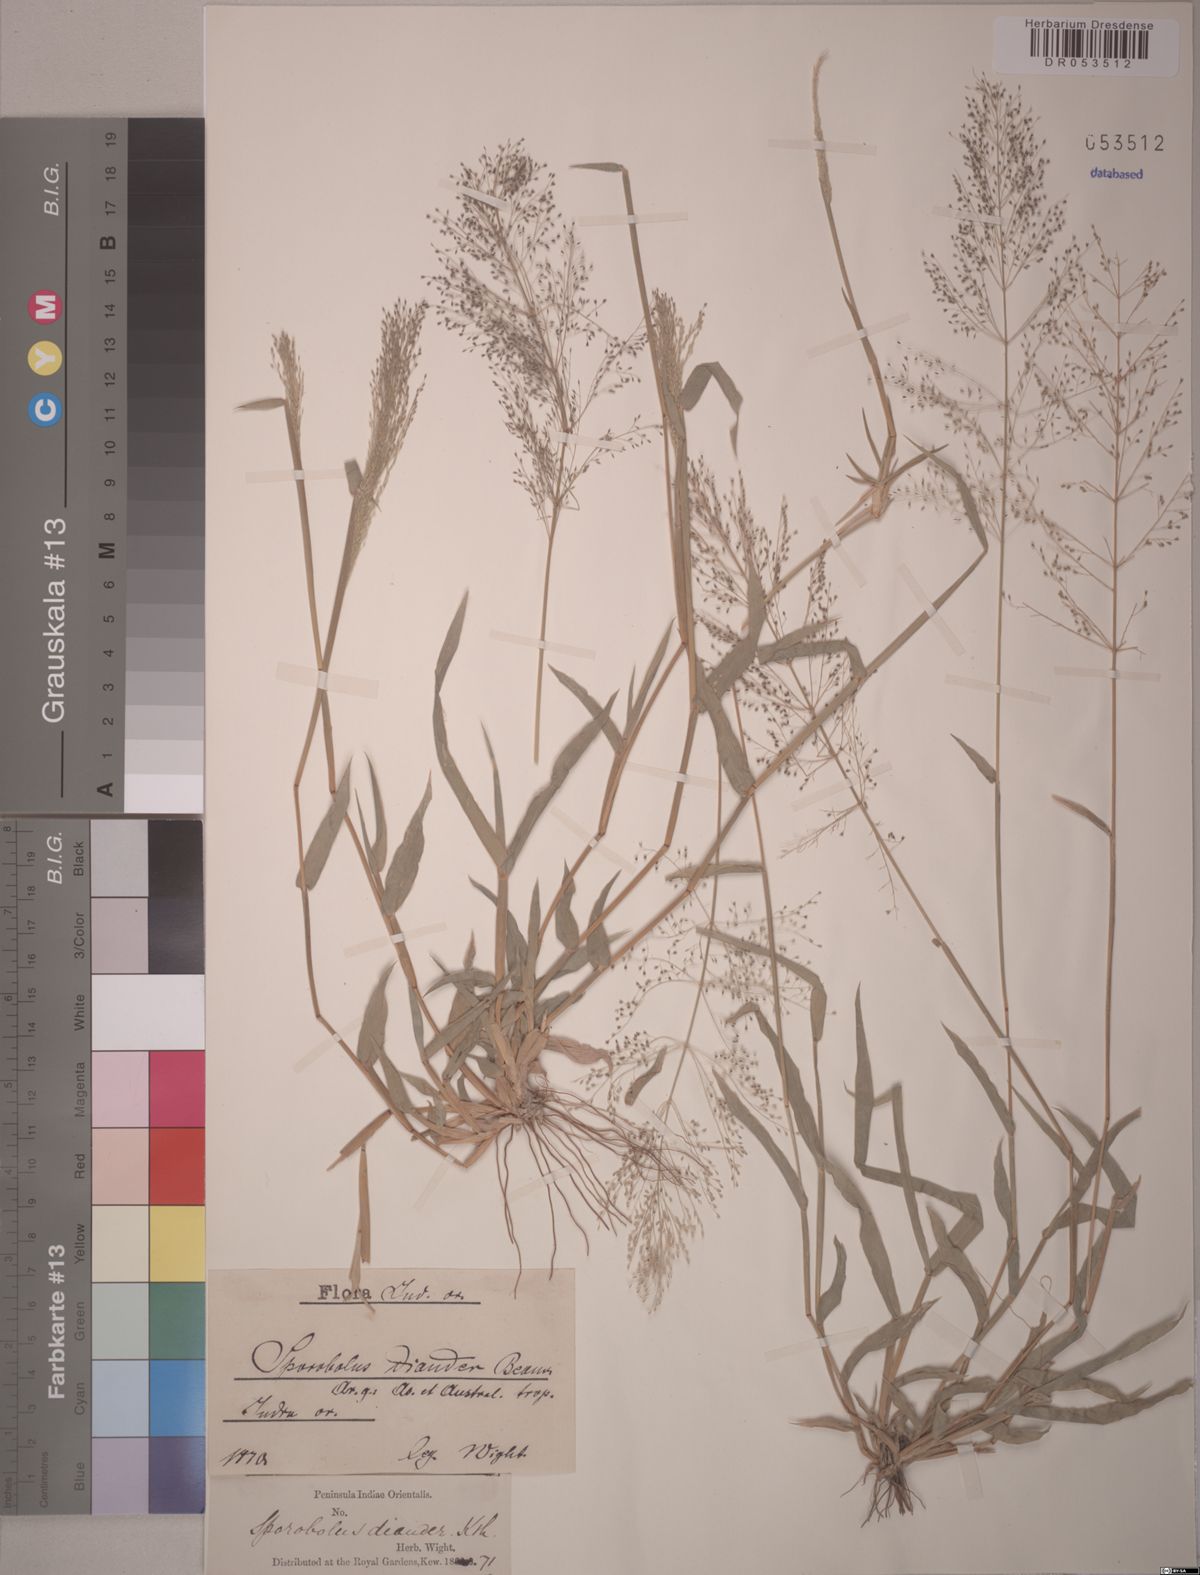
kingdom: Plantae
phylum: Tracheophyta
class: Liliopsida
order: Poales
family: Poaceae
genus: Sporobolus
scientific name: Sporobolus diandrus
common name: Tussock dropseed
